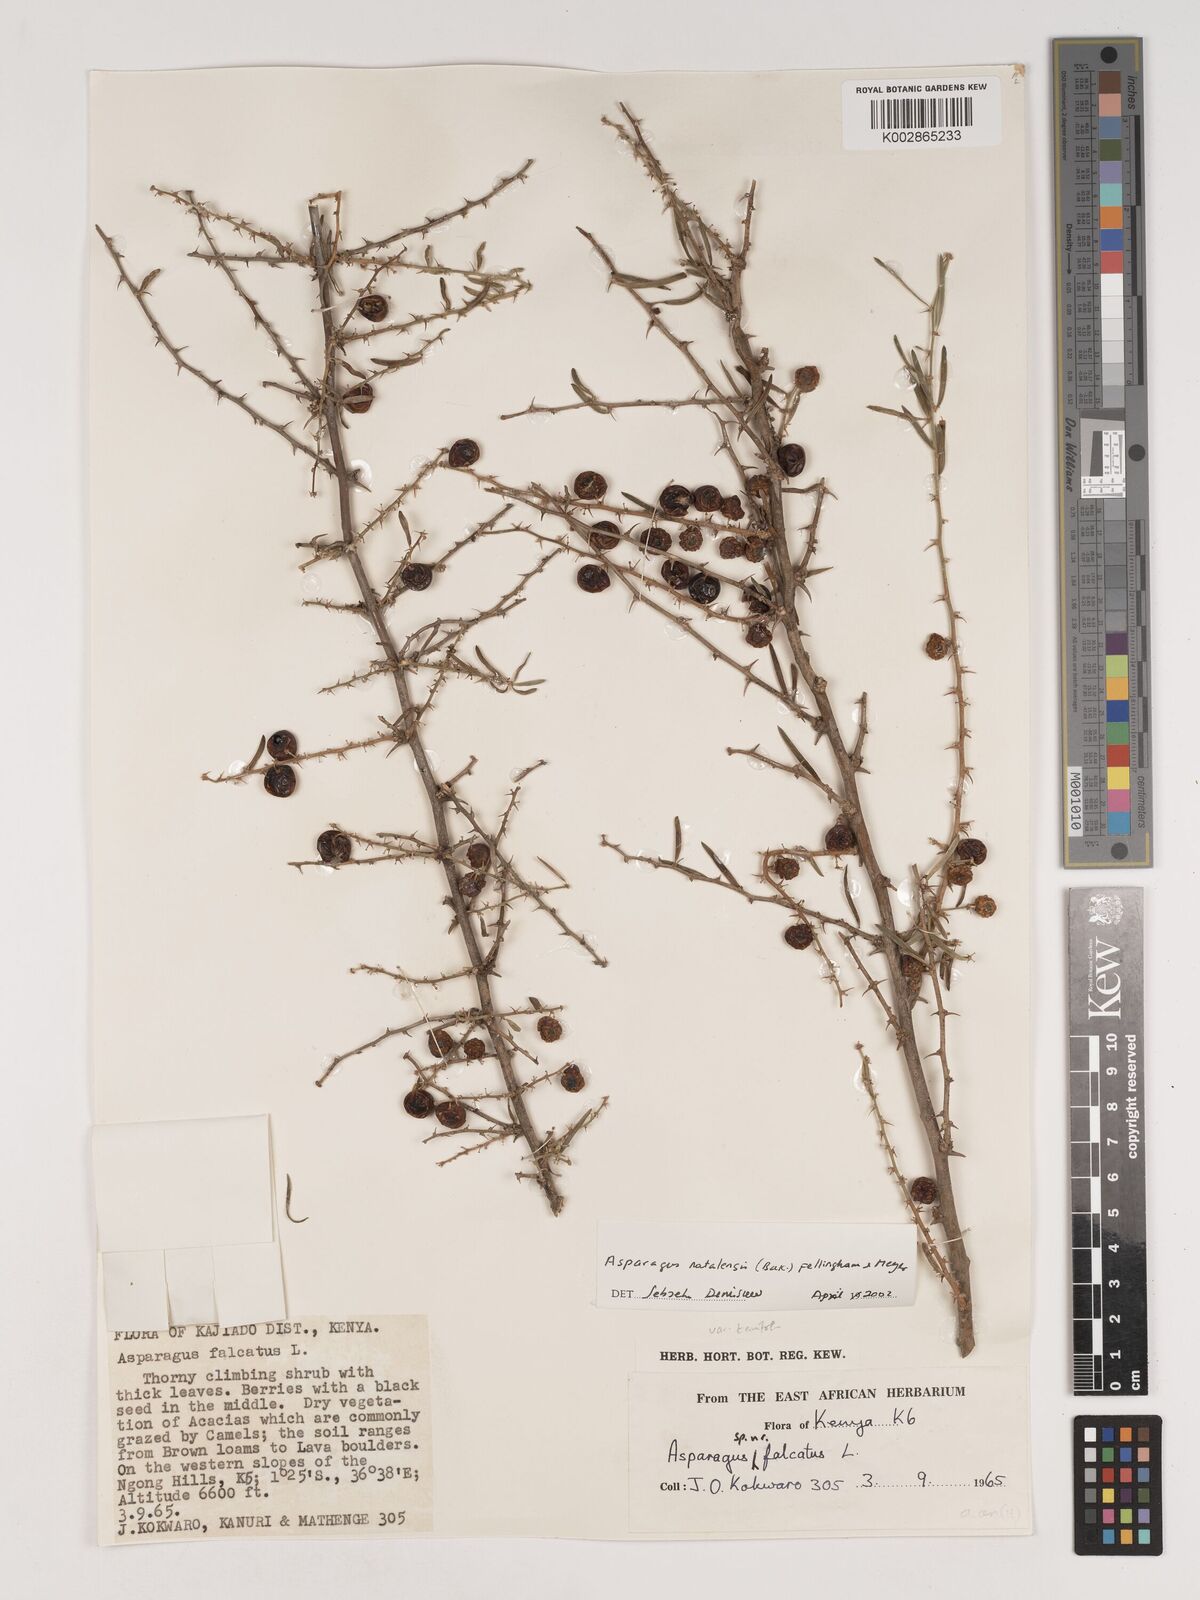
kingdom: Plantae
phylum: Tracheophyta
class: Liliopsida
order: Asparagales
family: Asparagaceae
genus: Asparagus
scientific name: Asparagus natalensis
